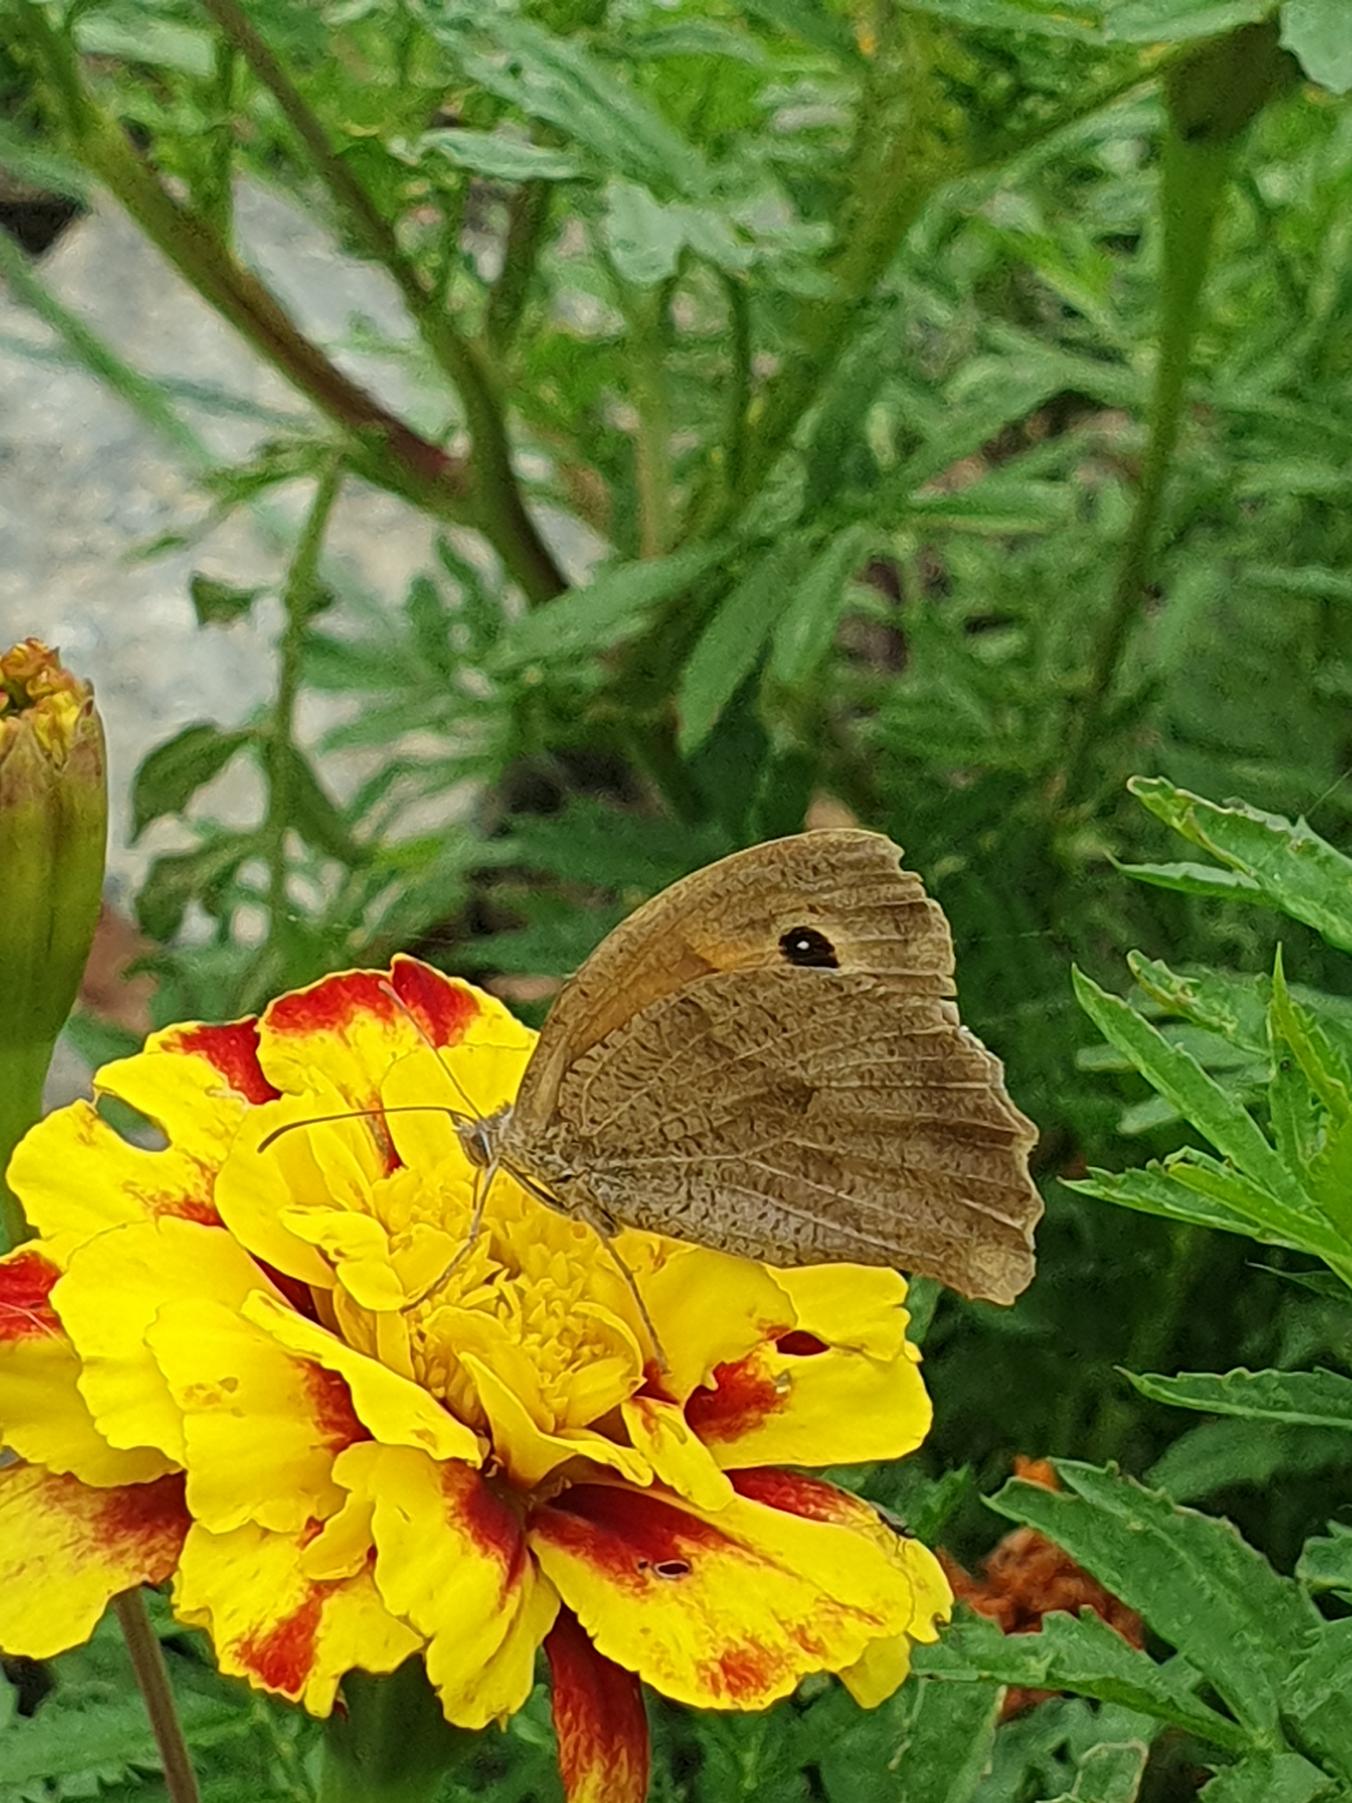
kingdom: Animalia
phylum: Arthropoda
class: Insecta
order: Lepidoptera
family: Nymphalidae
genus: Maniola
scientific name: Maniola jurtina
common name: Græsrandøje
